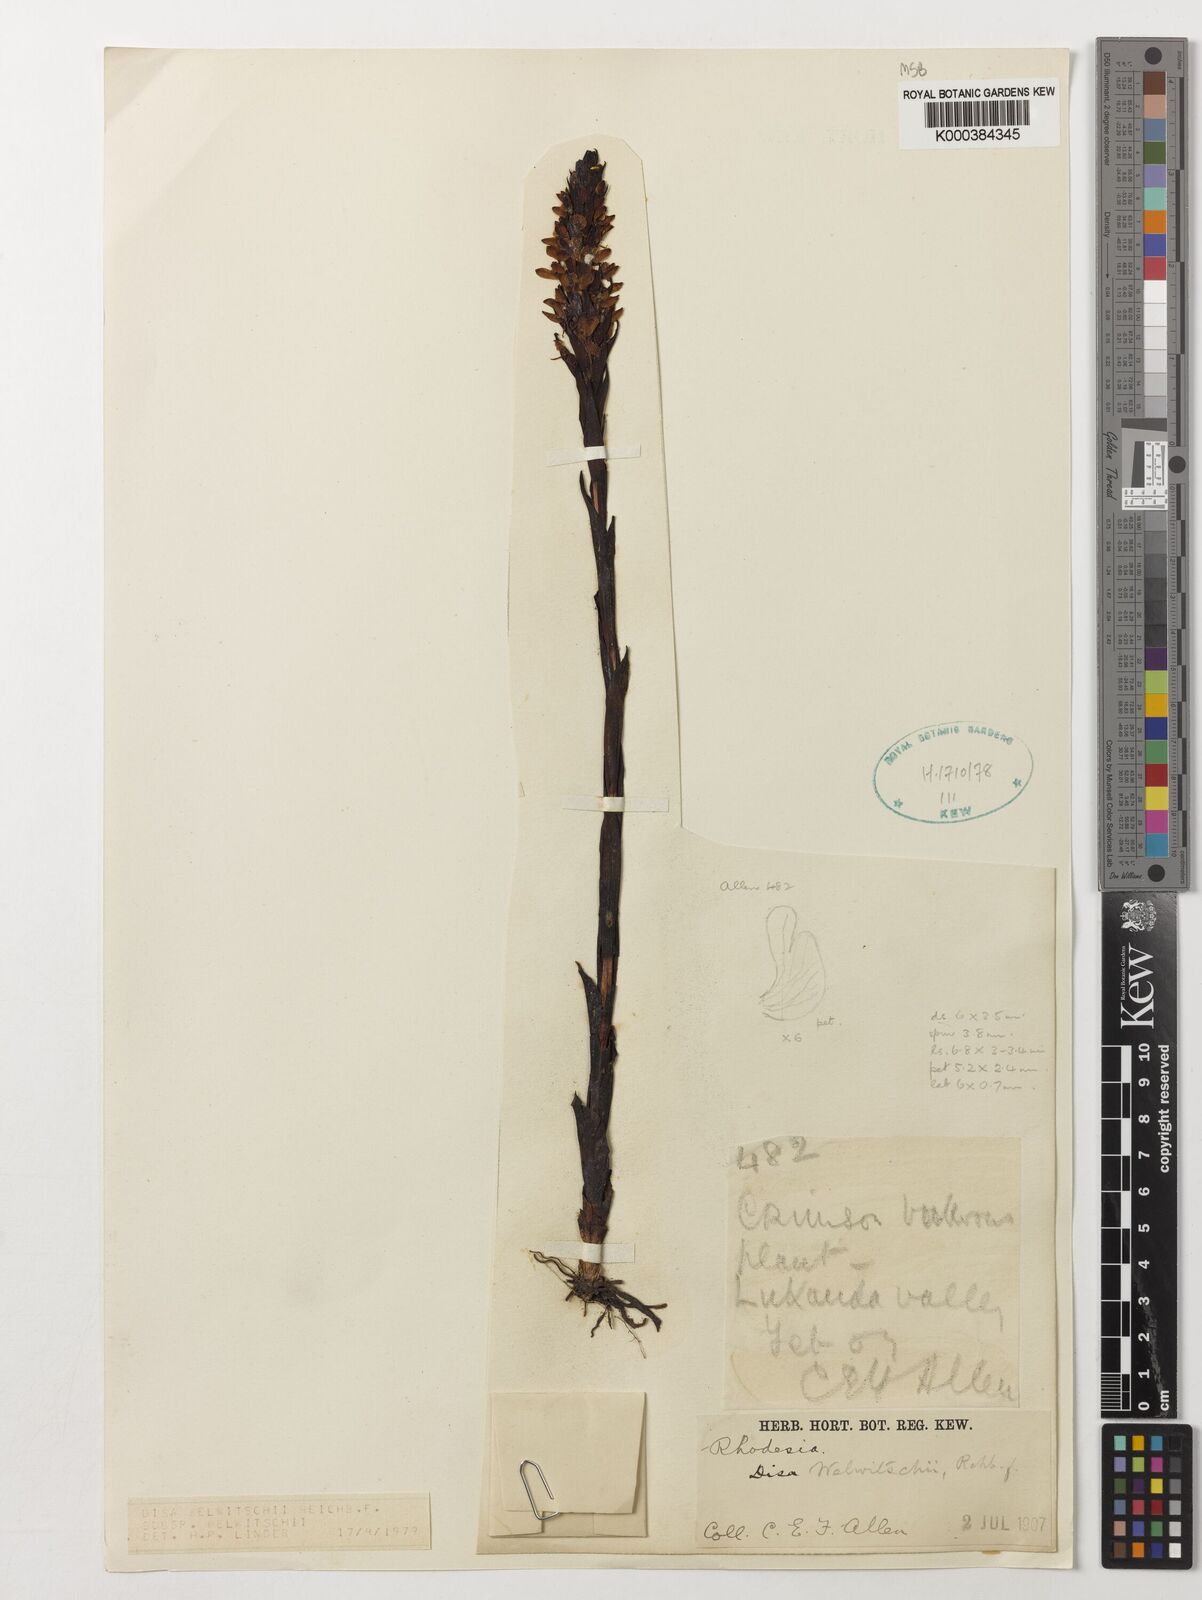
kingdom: Plantae
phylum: Tracheophyta
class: Liliopsida
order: Asparagales
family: Orchidaceae
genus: Disa
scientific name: Disa welwitschii
